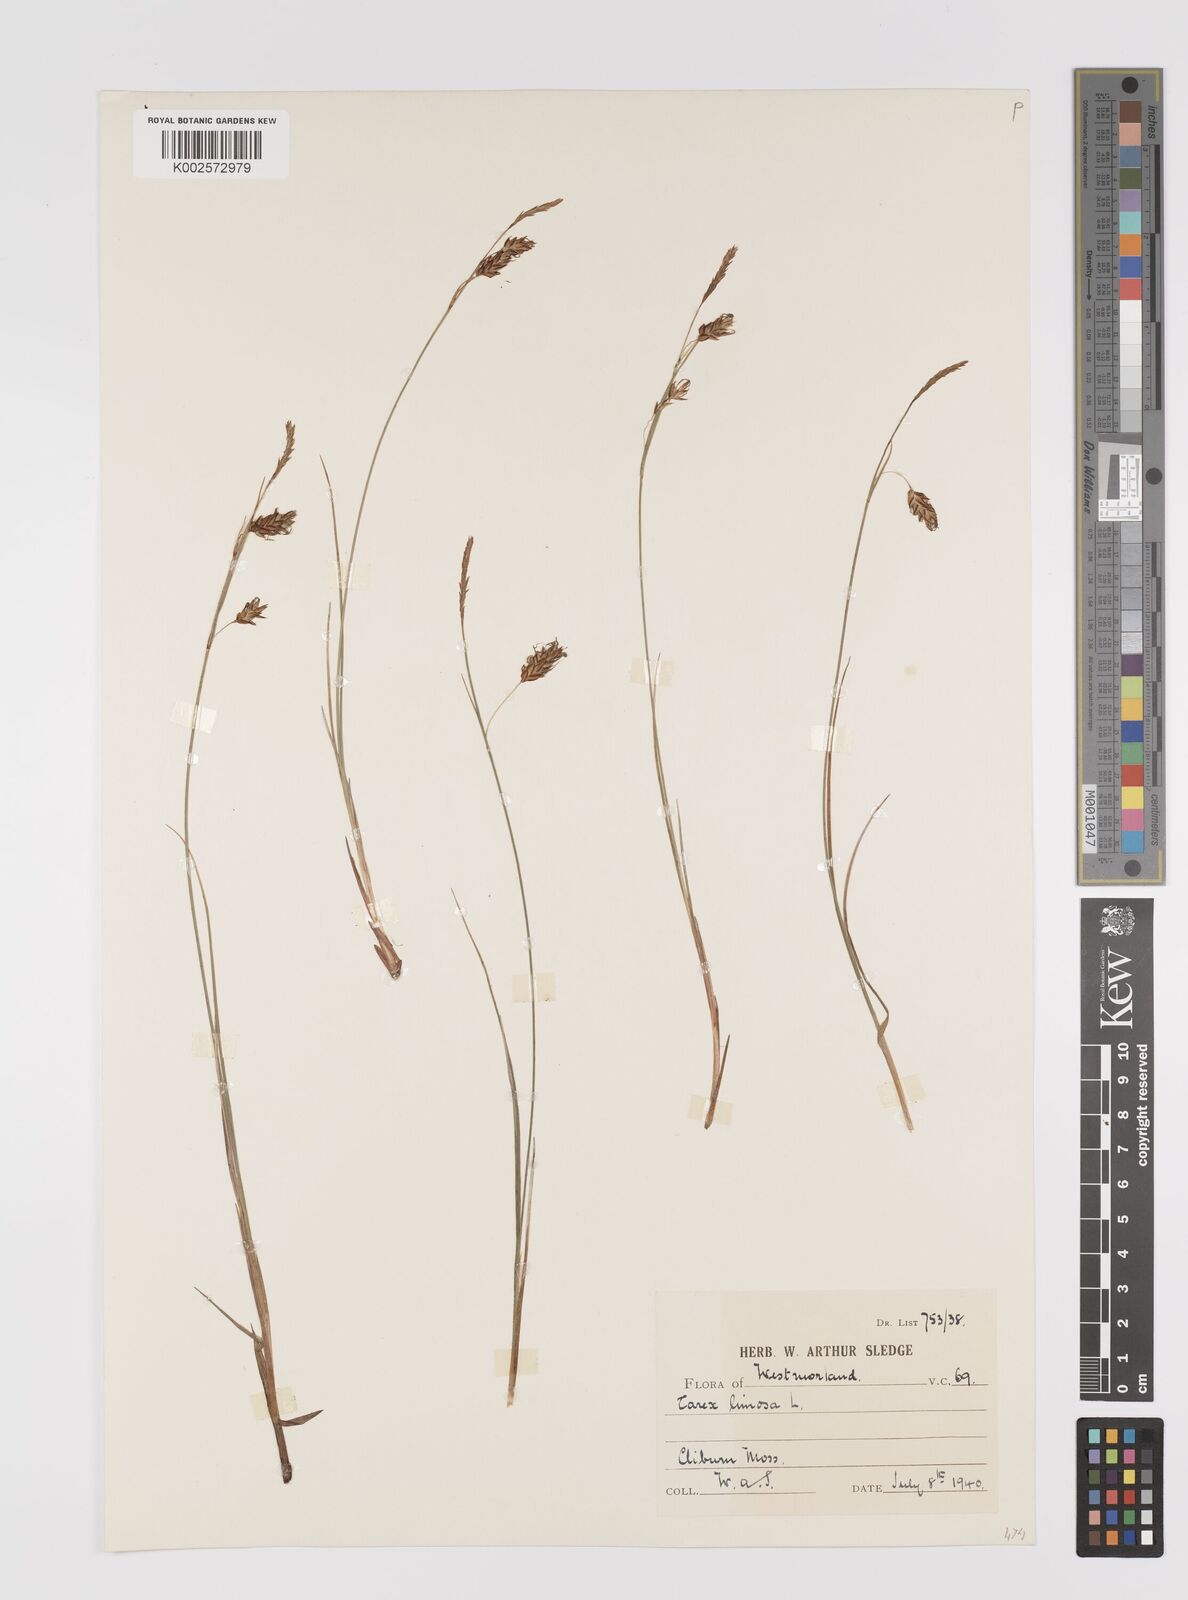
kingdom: Plantae
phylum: Tracheophyta
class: Liliopsida
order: Poales
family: Cyperaceae
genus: Carex
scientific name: Carex limosa
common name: Bog sedge
